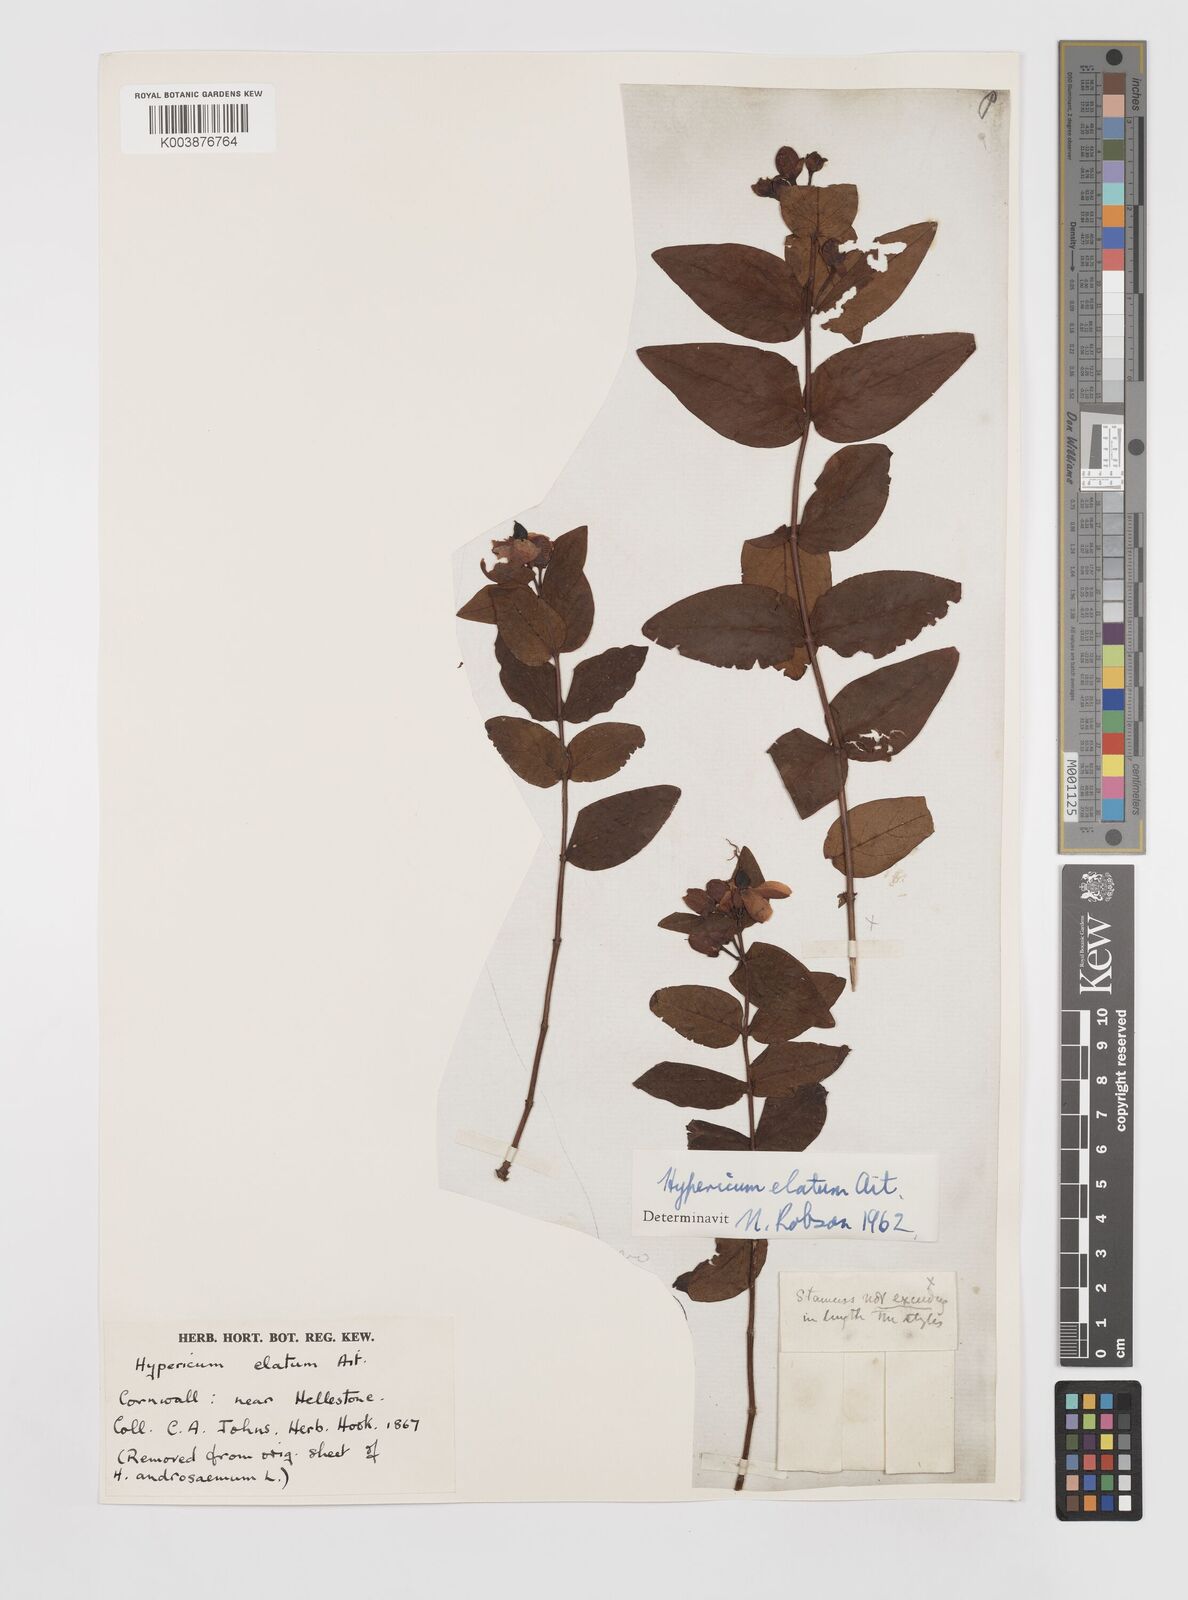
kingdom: Plantae
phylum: Tracheophyta
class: Magnoliopsida
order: Malpighiales
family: Hypericaceae
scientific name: Hypericaceae
